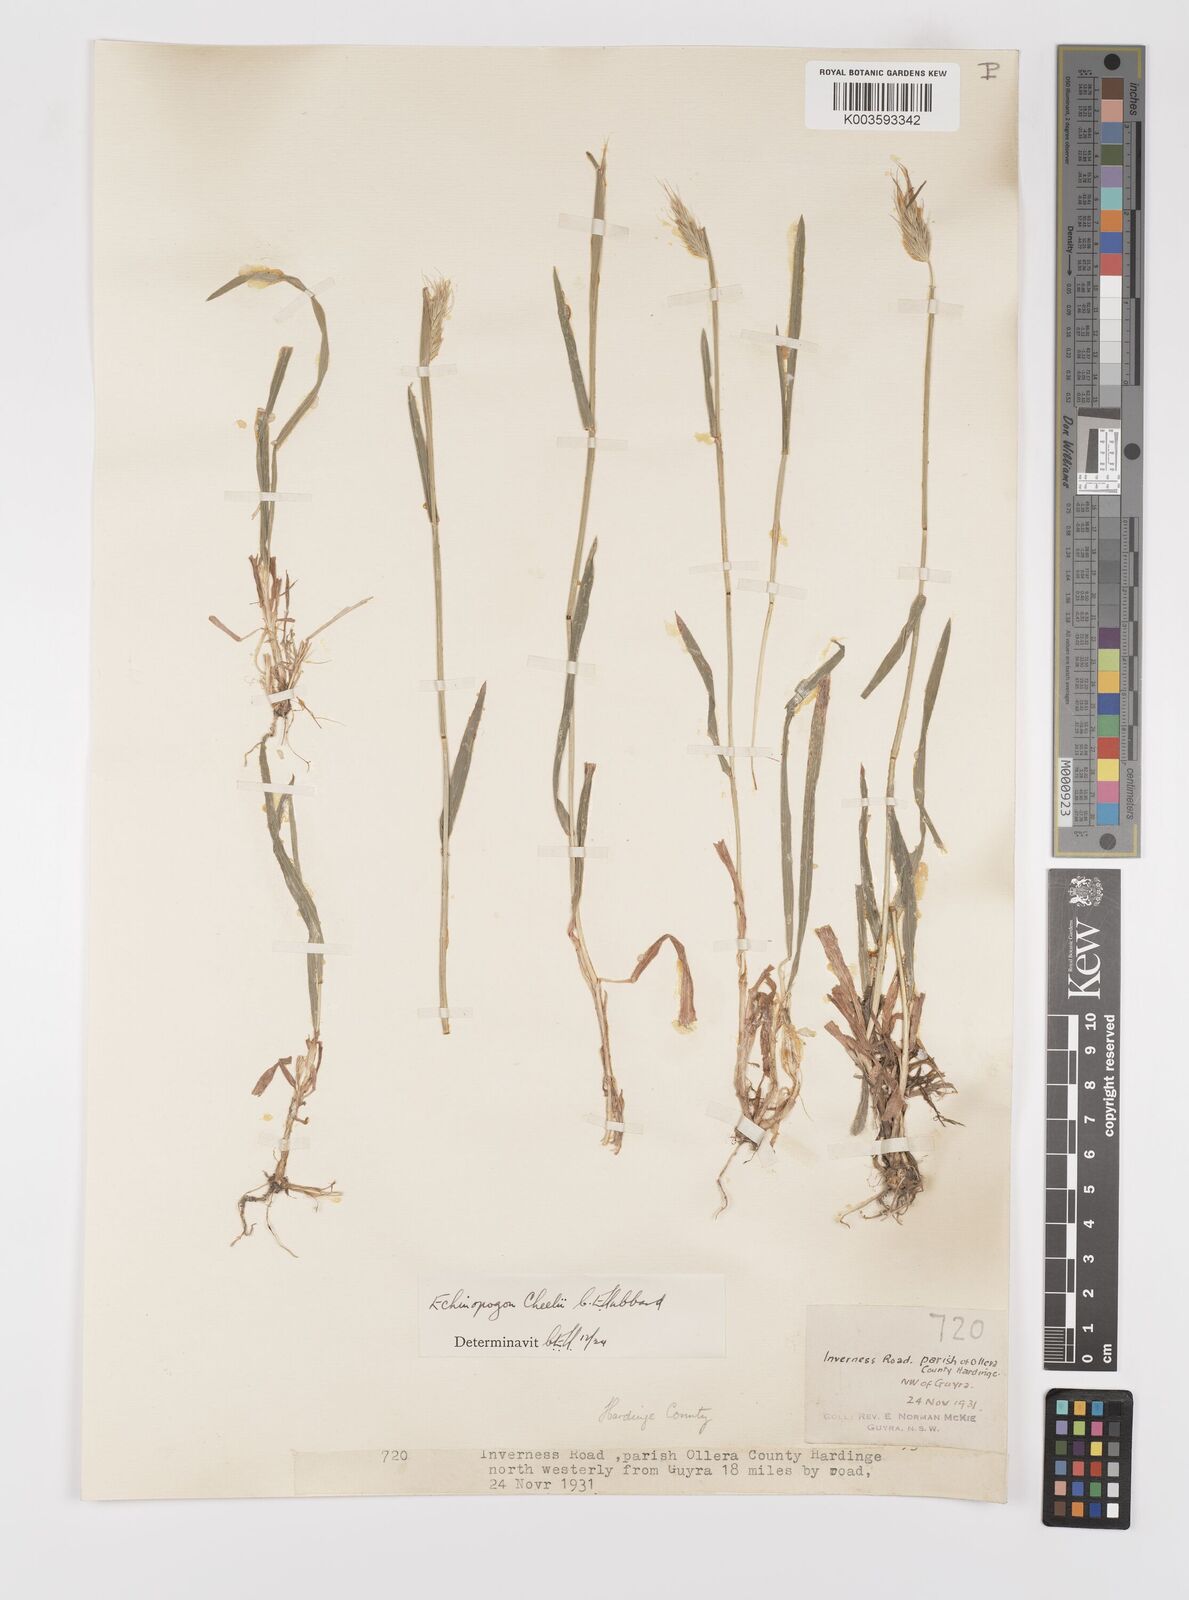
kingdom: Plantae
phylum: Tracheophyta
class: Liliopsida
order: Poales
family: Poaceae
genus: Echinopogon
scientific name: Echinopogon cheelii
